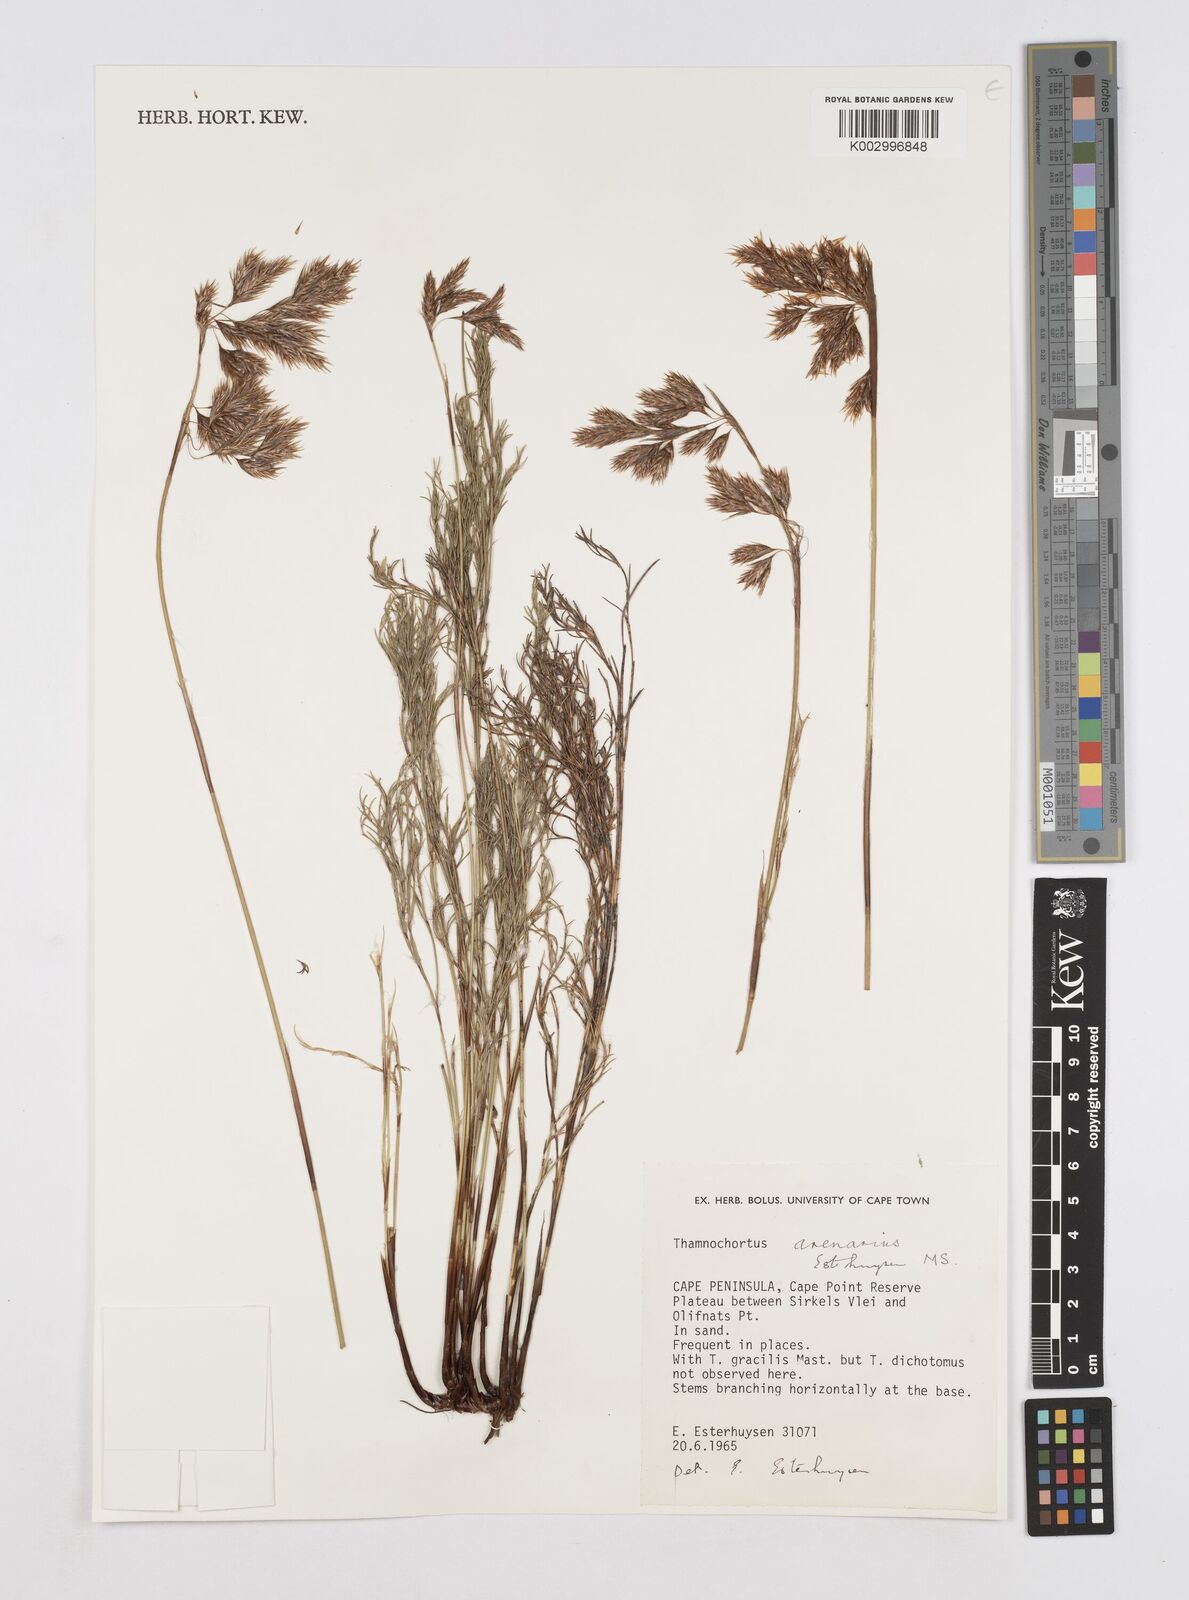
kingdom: Plantae
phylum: Tracheophyta
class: Liliopsida
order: Poales
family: Restionaceae
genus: Thamnochortus
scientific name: Thamnochortus arenarius
